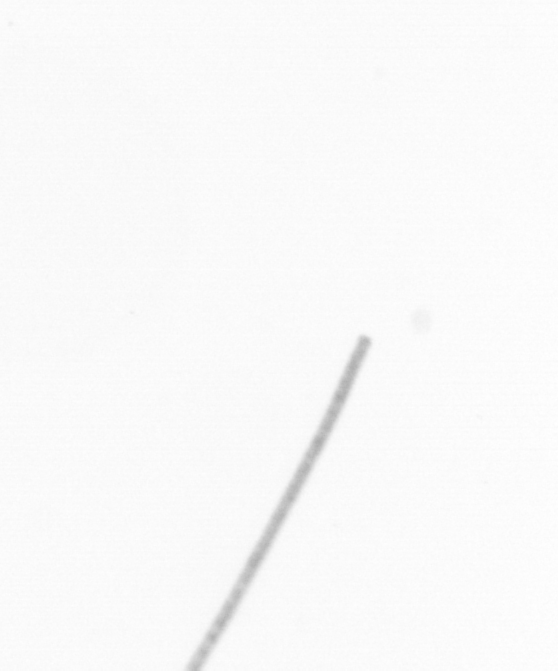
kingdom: Chromista
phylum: Ochrophyta
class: Bacillariophyceae
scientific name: Bacillariophyceae
